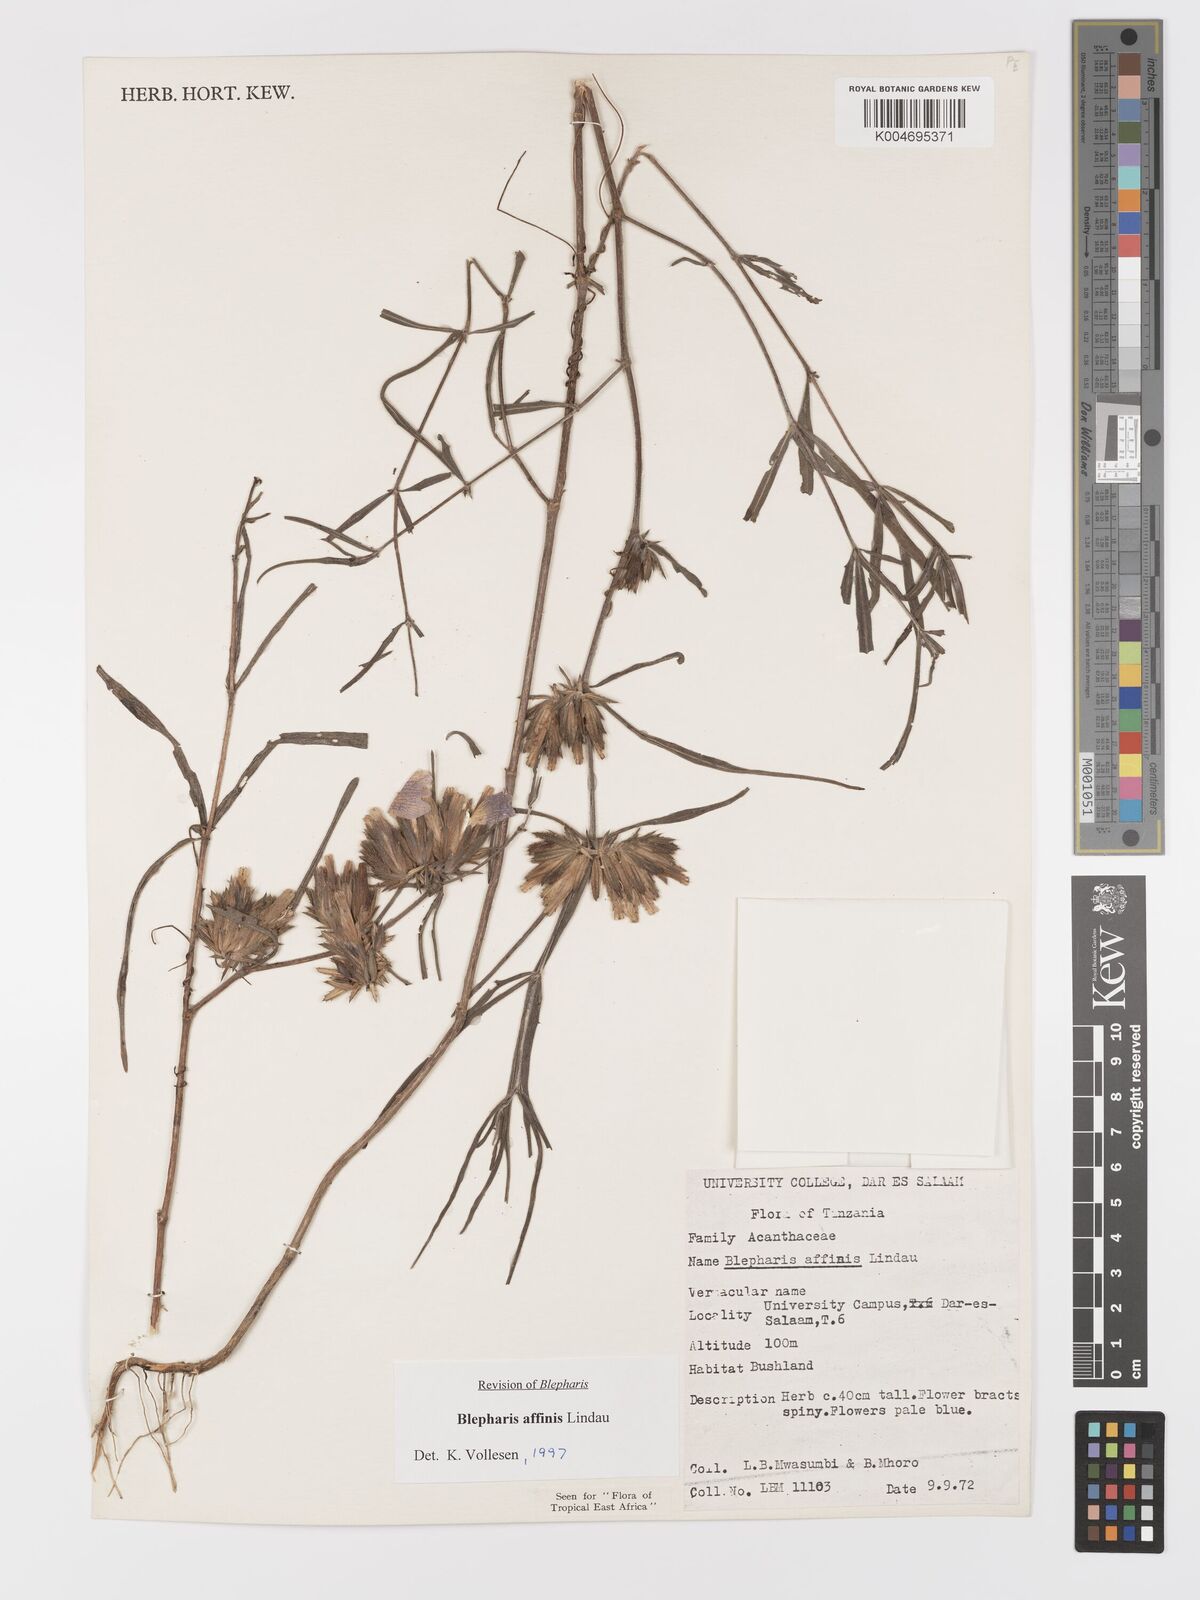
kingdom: Plantae
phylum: Tracheophyta
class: Magnoliopsida
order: Lamiales
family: Acanthaceae
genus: Blepharis
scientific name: Blepharis affinis
